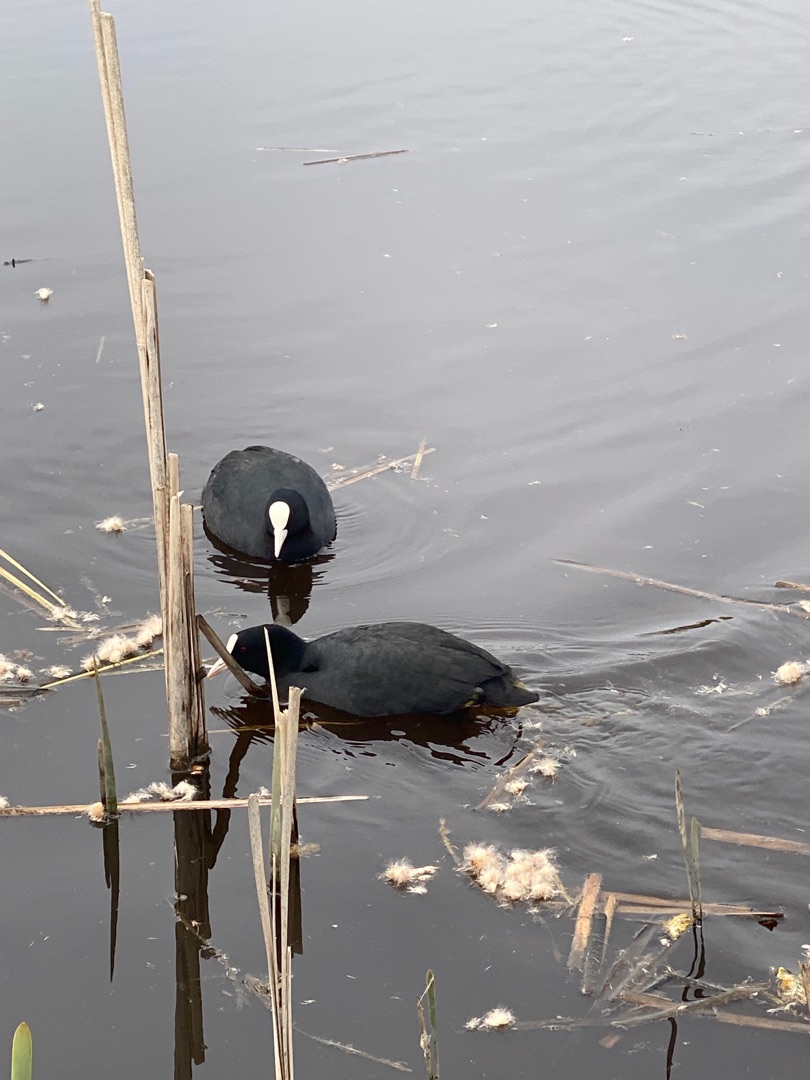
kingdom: Animalia
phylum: Chordata
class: Aves
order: Gruiformes
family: Rallidae
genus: Fulica
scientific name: Fulica atra
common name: Blishøne
